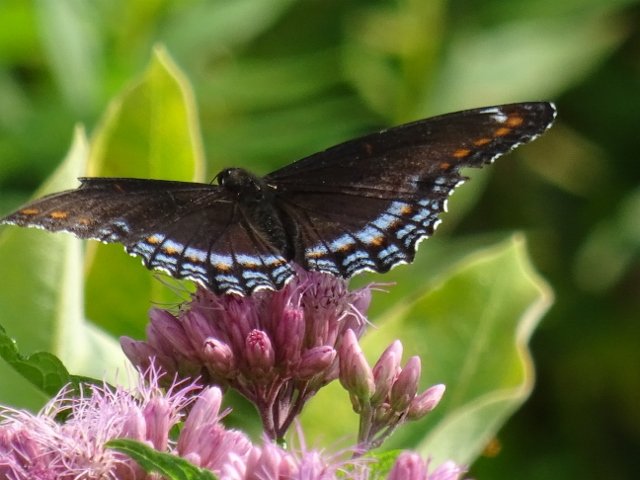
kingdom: Animalia
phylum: Arthropoda
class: Insecta
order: Lepidoptera
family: Nymphalidae
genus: Limenitis
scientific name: Limenitis astyanax
